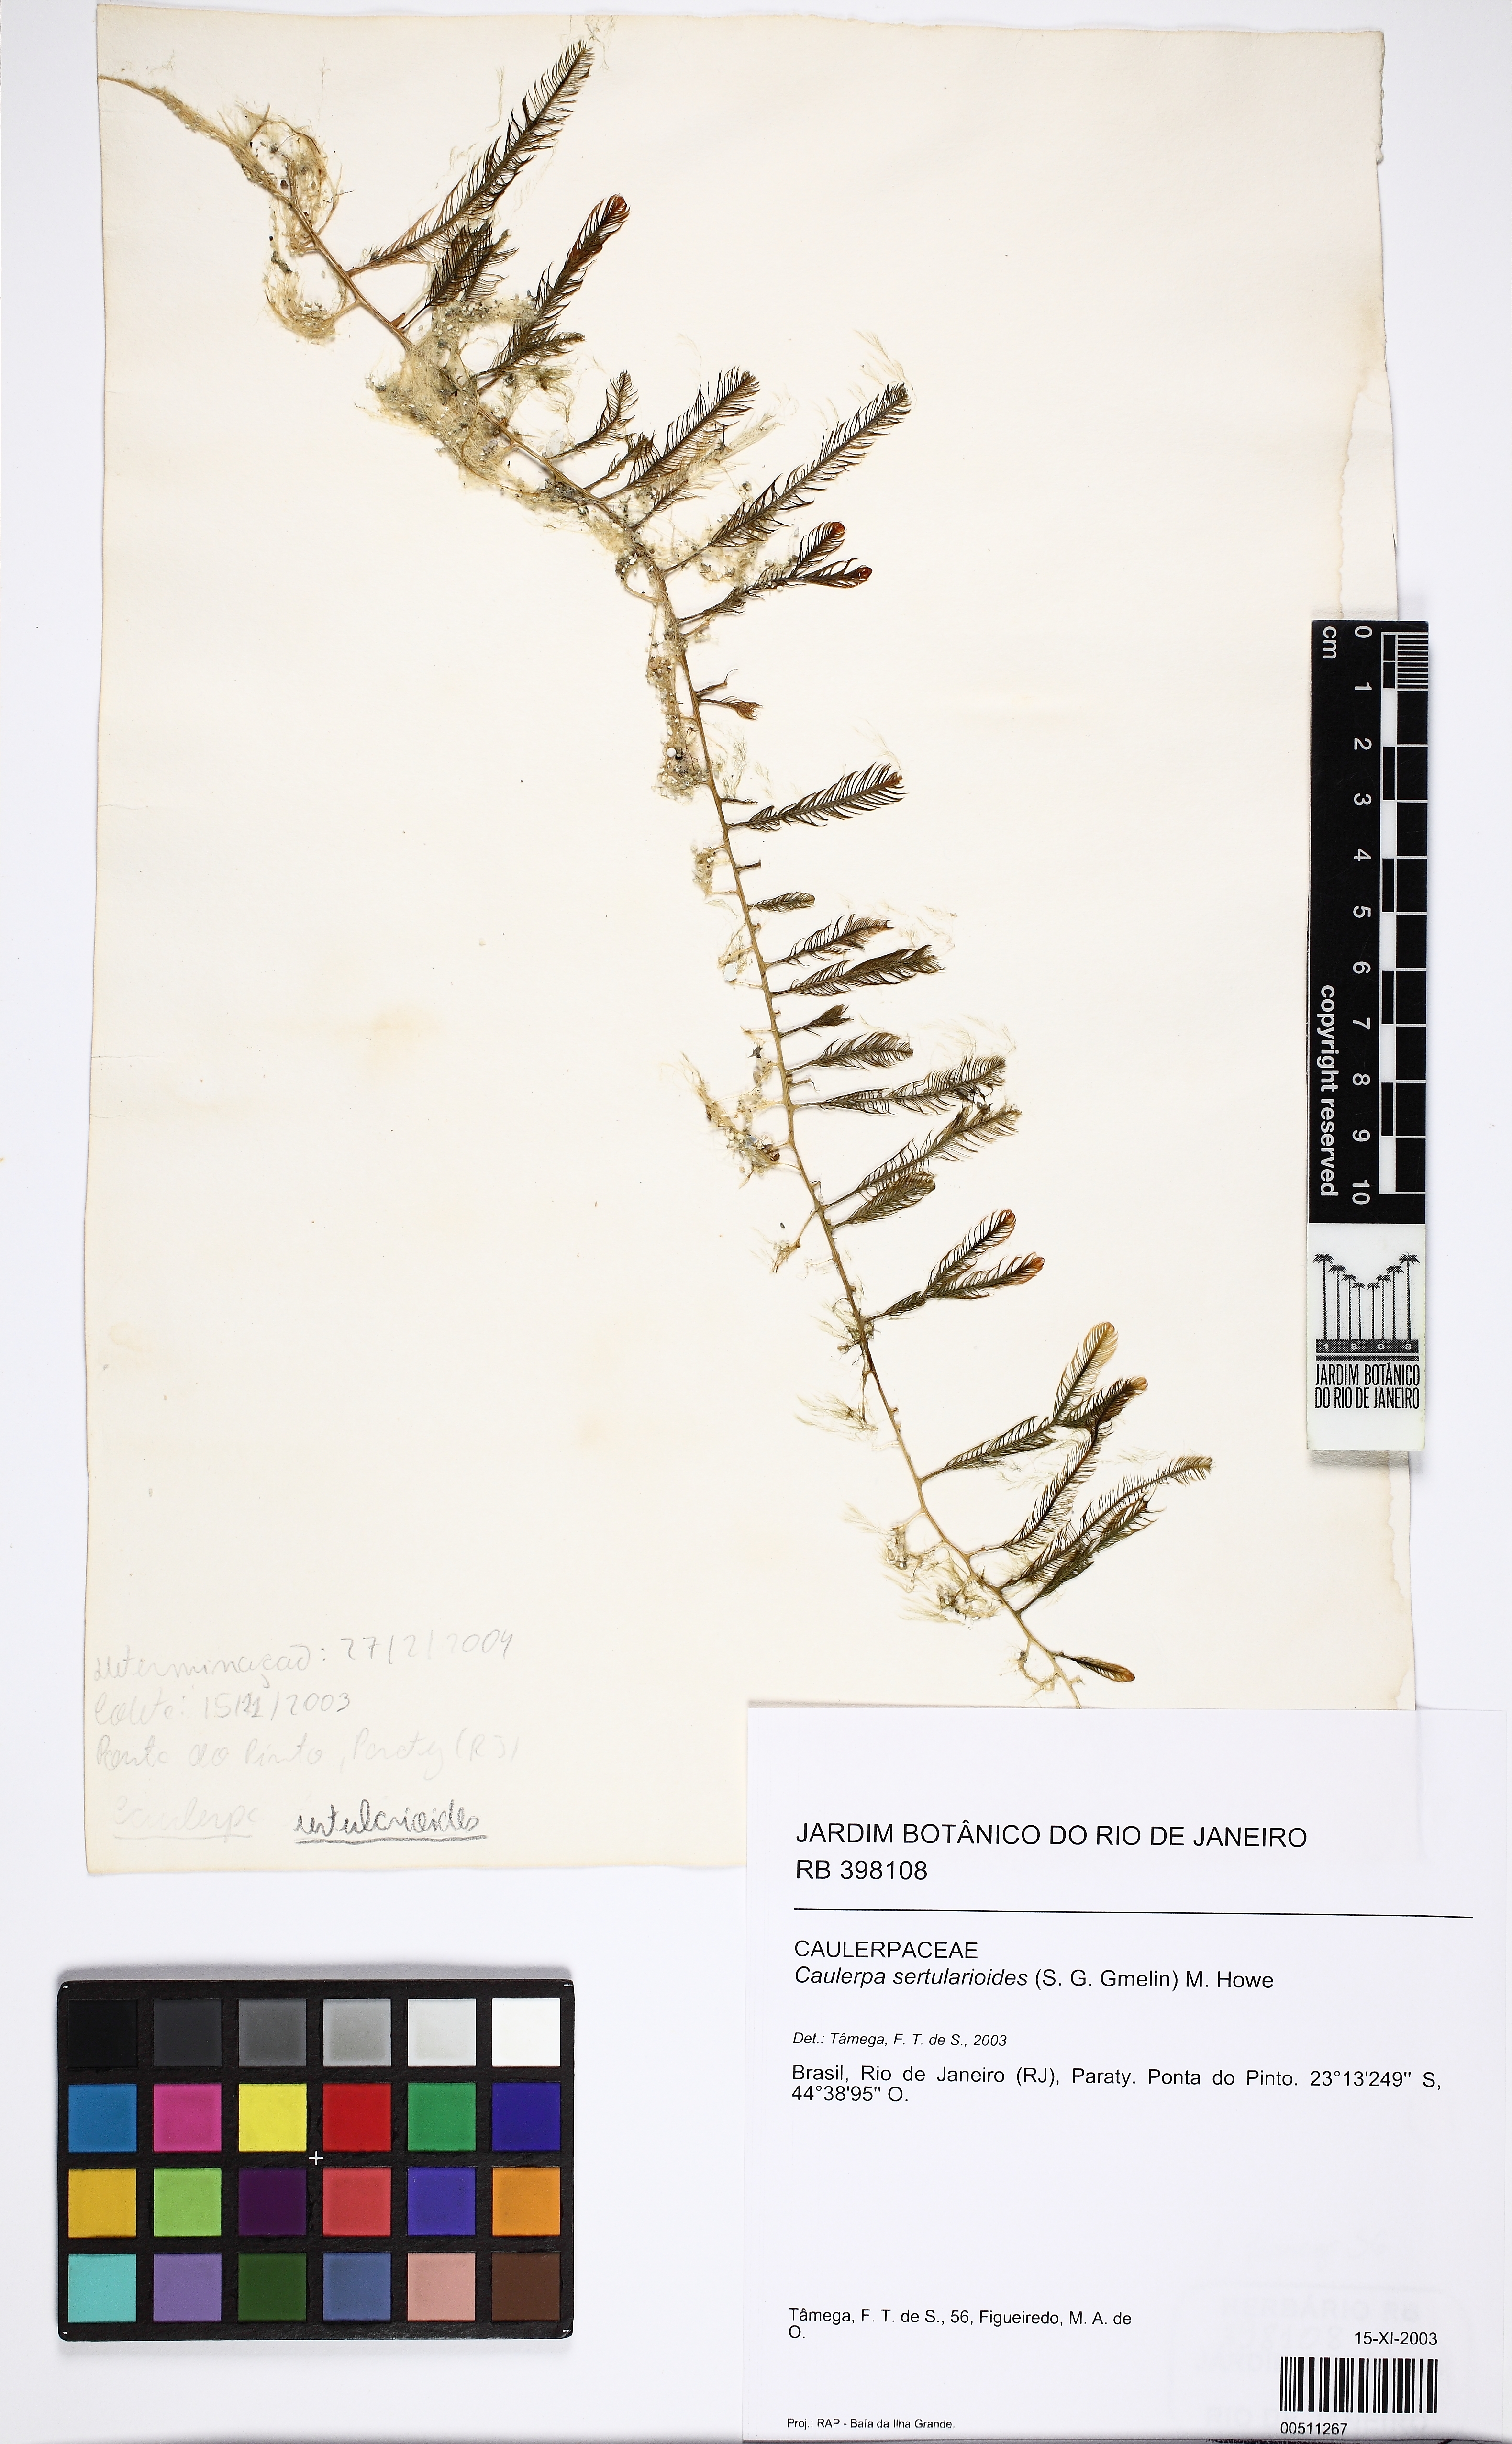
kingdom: Plantae
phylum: Chlorophyta
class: Ulvophyceae
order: Bryopsidales
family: Caulerpaceae
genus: Caulerpa
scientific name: Caulerpa sertularioides
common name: Green feather algae
